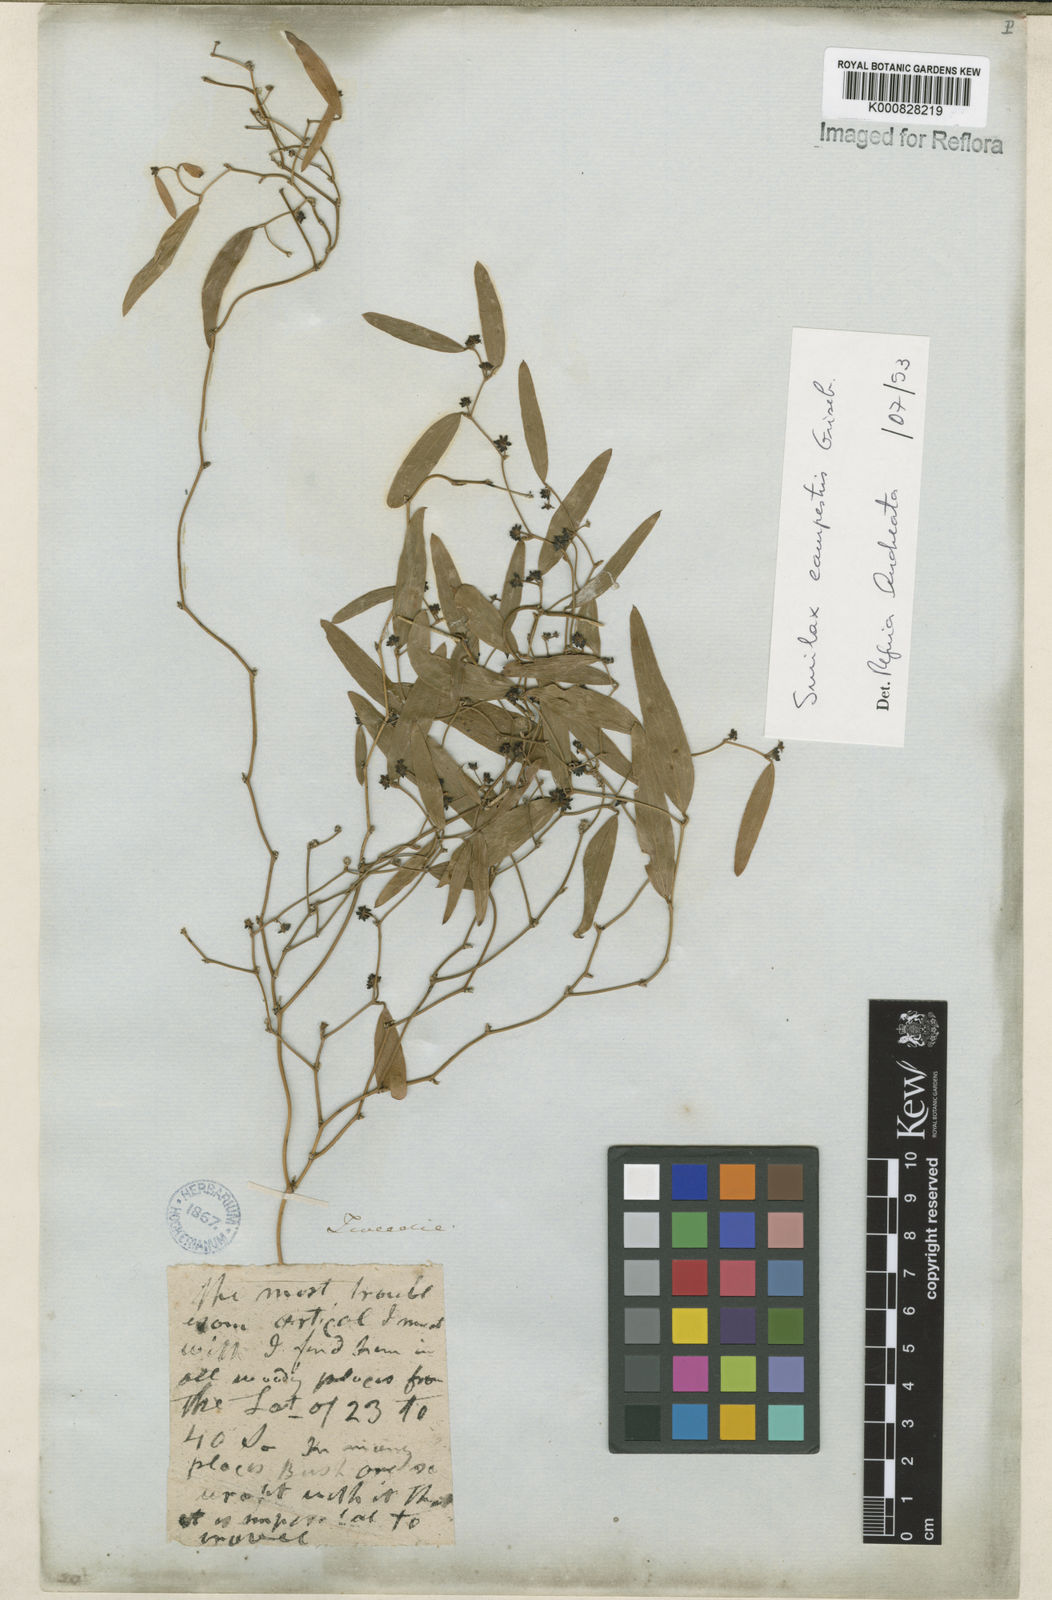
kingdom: Plantae
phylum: Tracheophyta
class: Liliopsida
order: Liliales
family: Smilacaceae
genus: Smilax
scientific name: Smilax campestris
